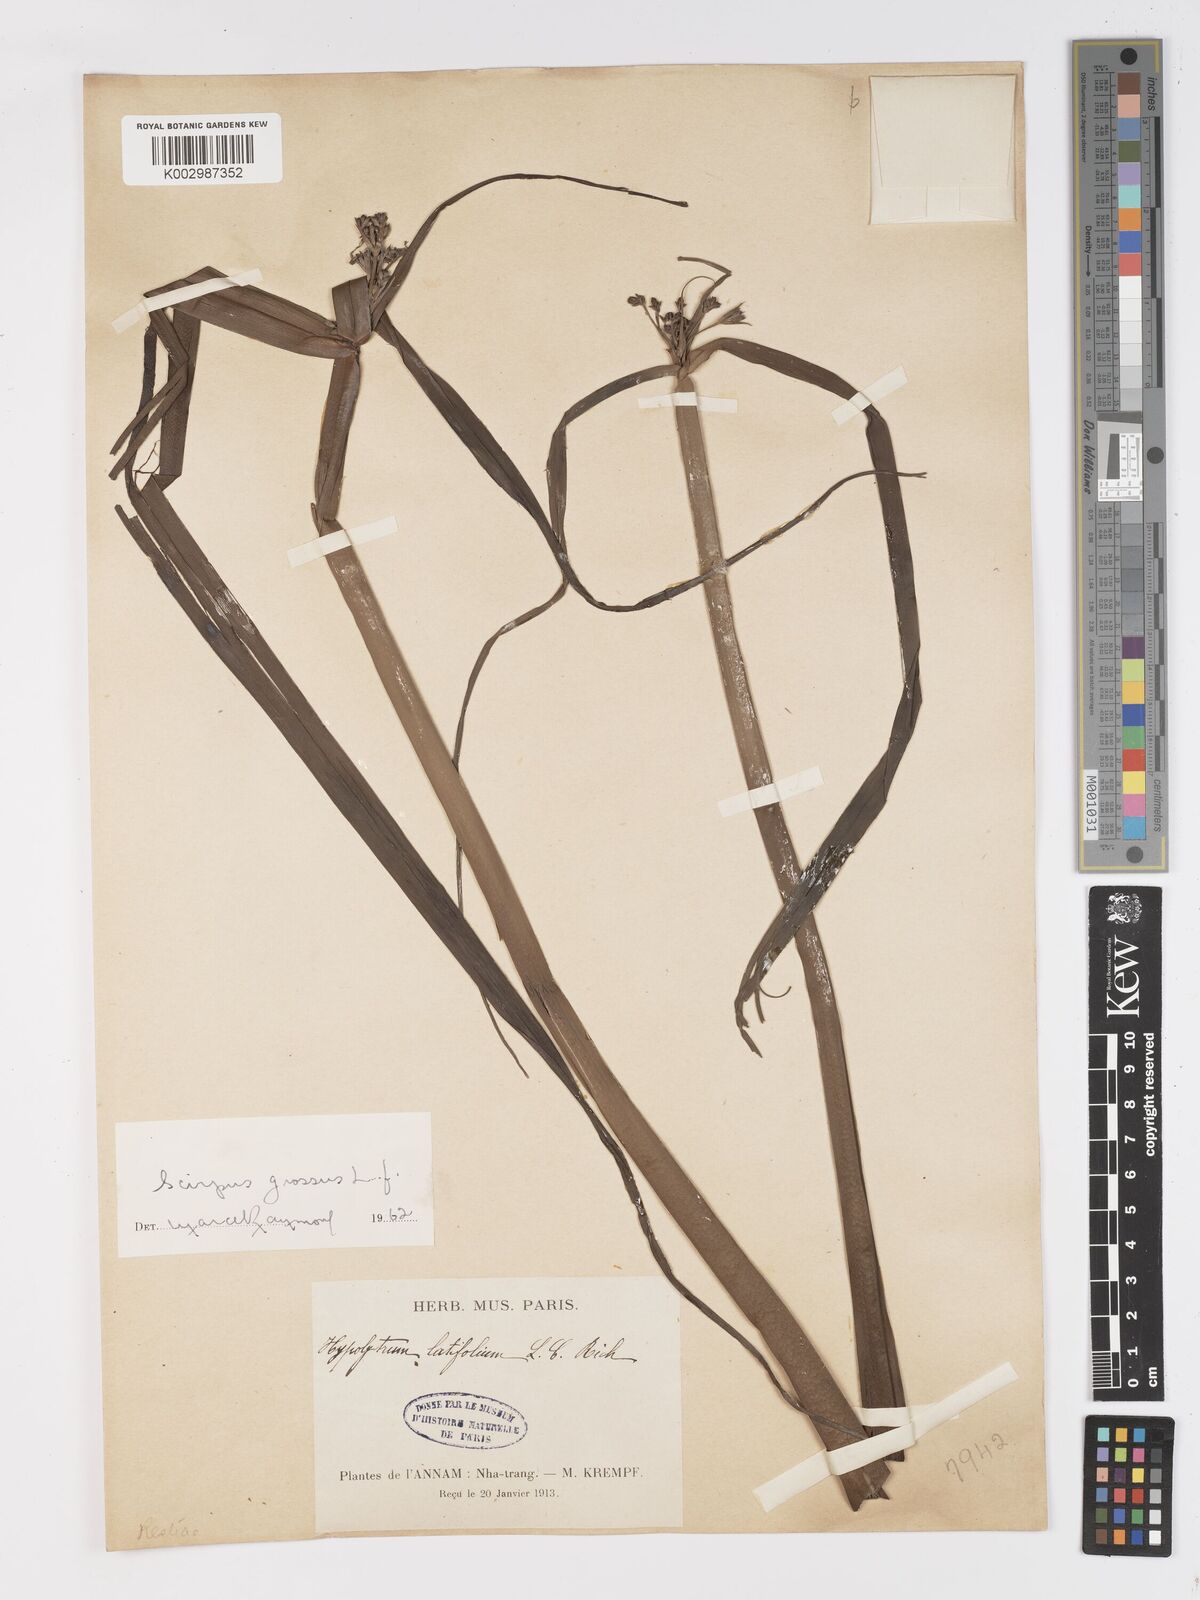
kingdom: Plantae
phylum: Tracheophyta
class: Liliopsida
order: Poales
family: Cyperaceae
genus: Actinoscirpus
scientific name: Actinoscirpus grossus
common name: Giant bur rush
